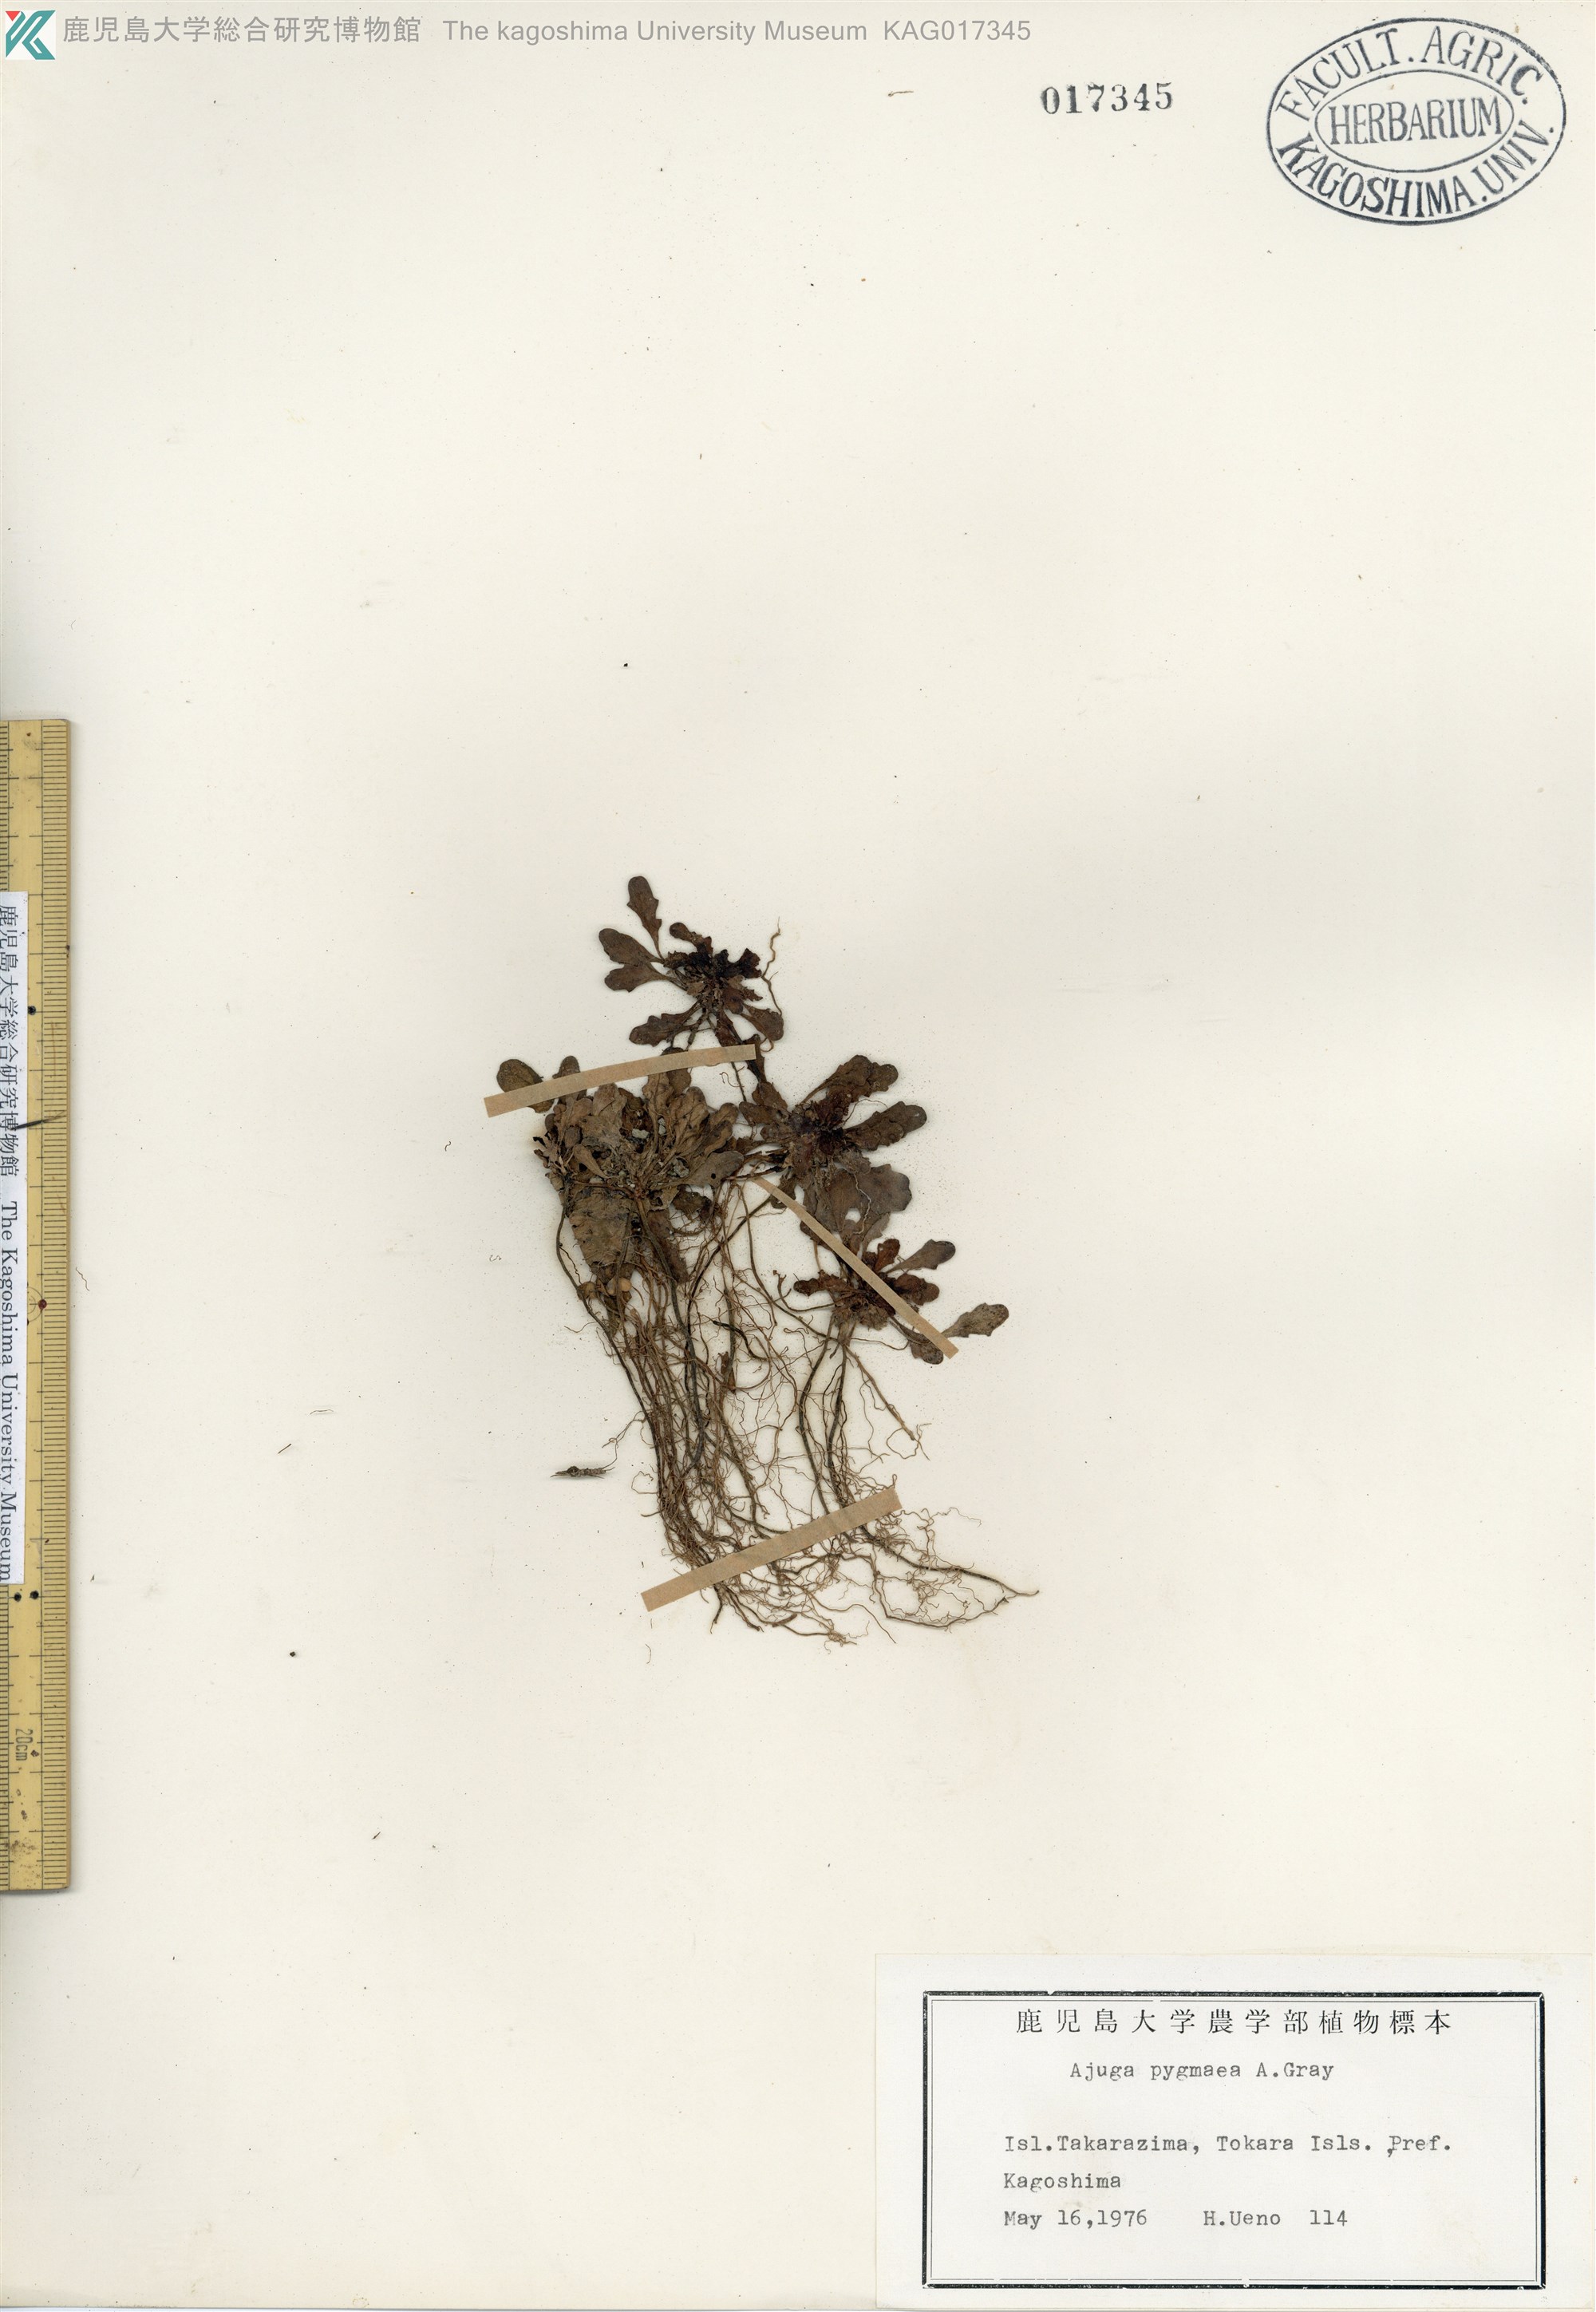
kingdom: Plantae
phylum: Tracheophyta
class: Magnoliopsida
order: Lamiales
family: Lamiaceae
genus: Ajuga
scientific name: Ajuga pygmaea
